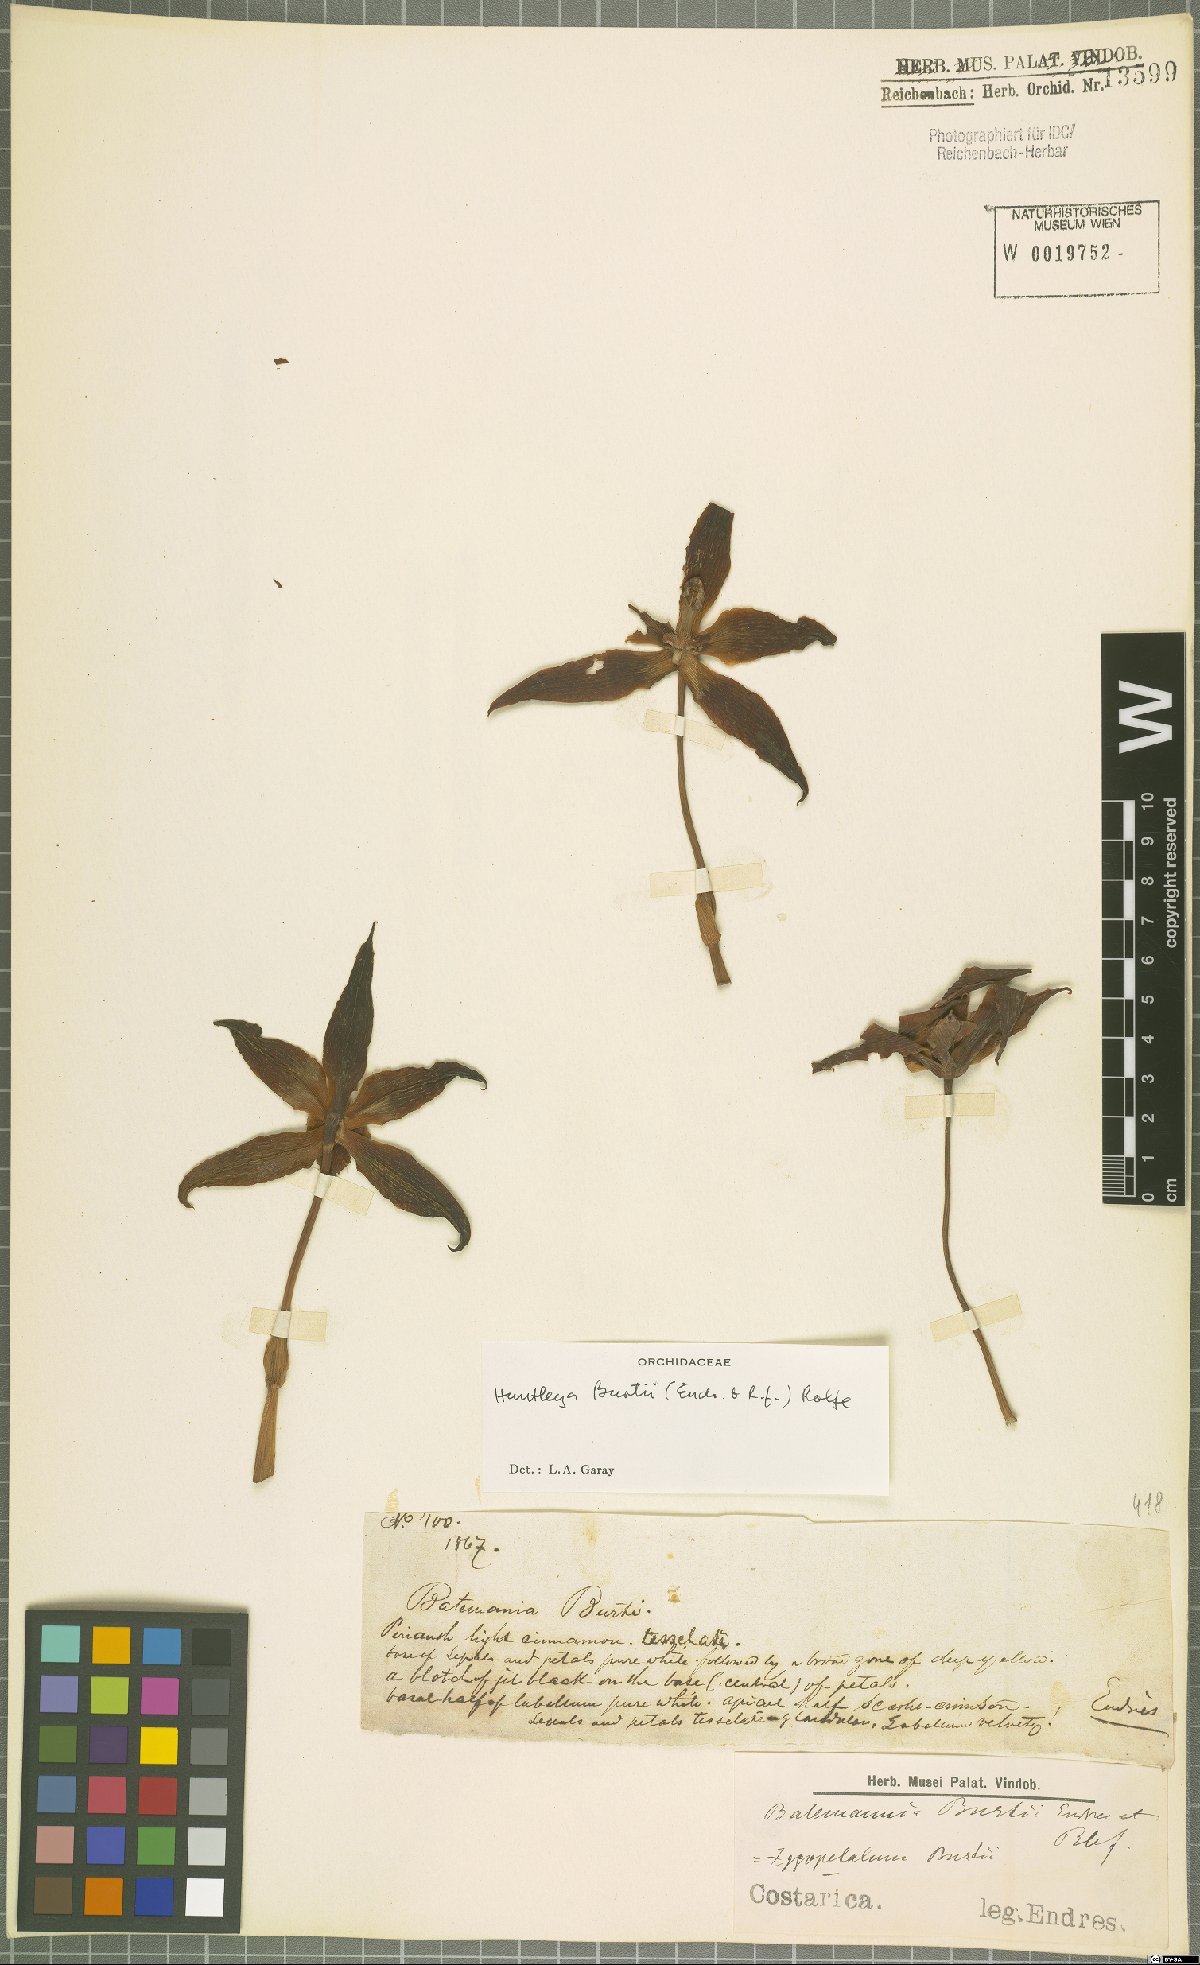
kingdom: Plantae
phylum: Tracheophyta
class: Liliopsida
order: Asparagales
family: Orchidaceae
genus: Huntleya
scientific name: Huntleya burtii
